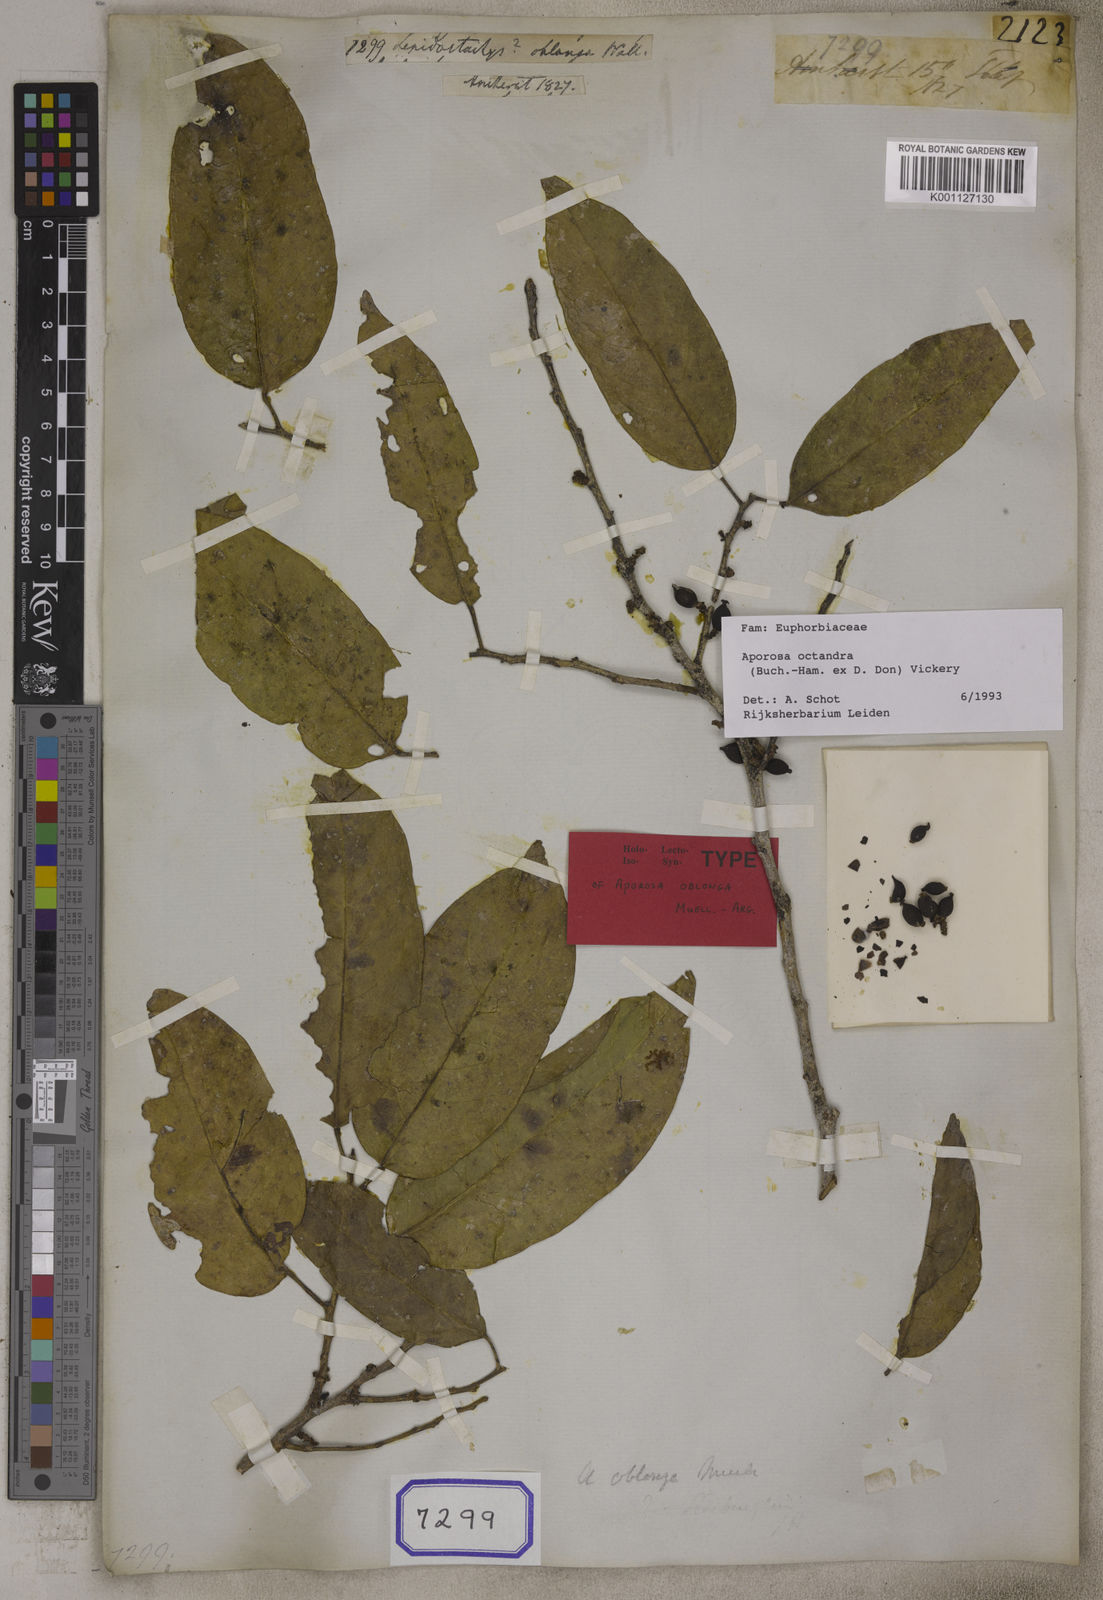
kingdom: Plantae
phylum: Tracheophyta
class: Magnoliopsida
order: Malpighiales
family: Phyllanthaceae
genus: Aporosa
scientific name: Aporosa octandra
